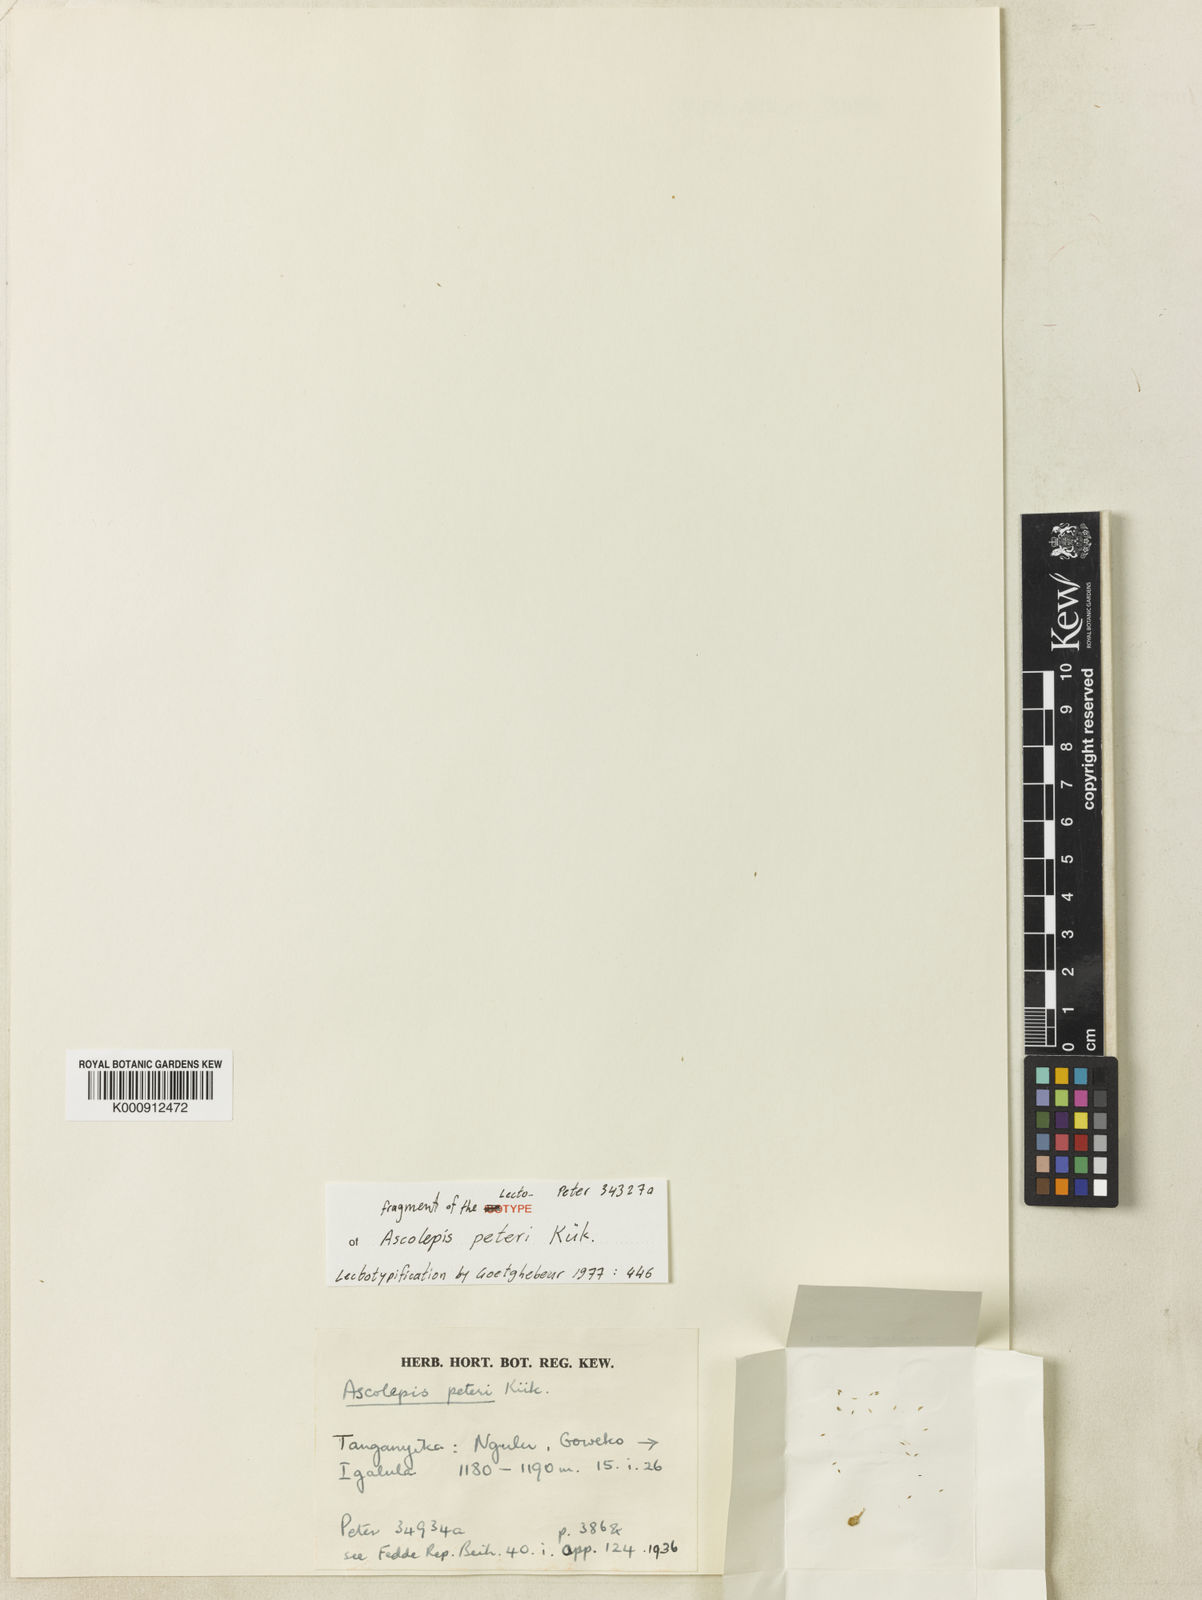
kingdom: Plantae
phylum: Tracheophyta
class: Liliopsida
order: Poales
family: Cyperaceae
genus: Cyperus
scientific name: Cyperus
